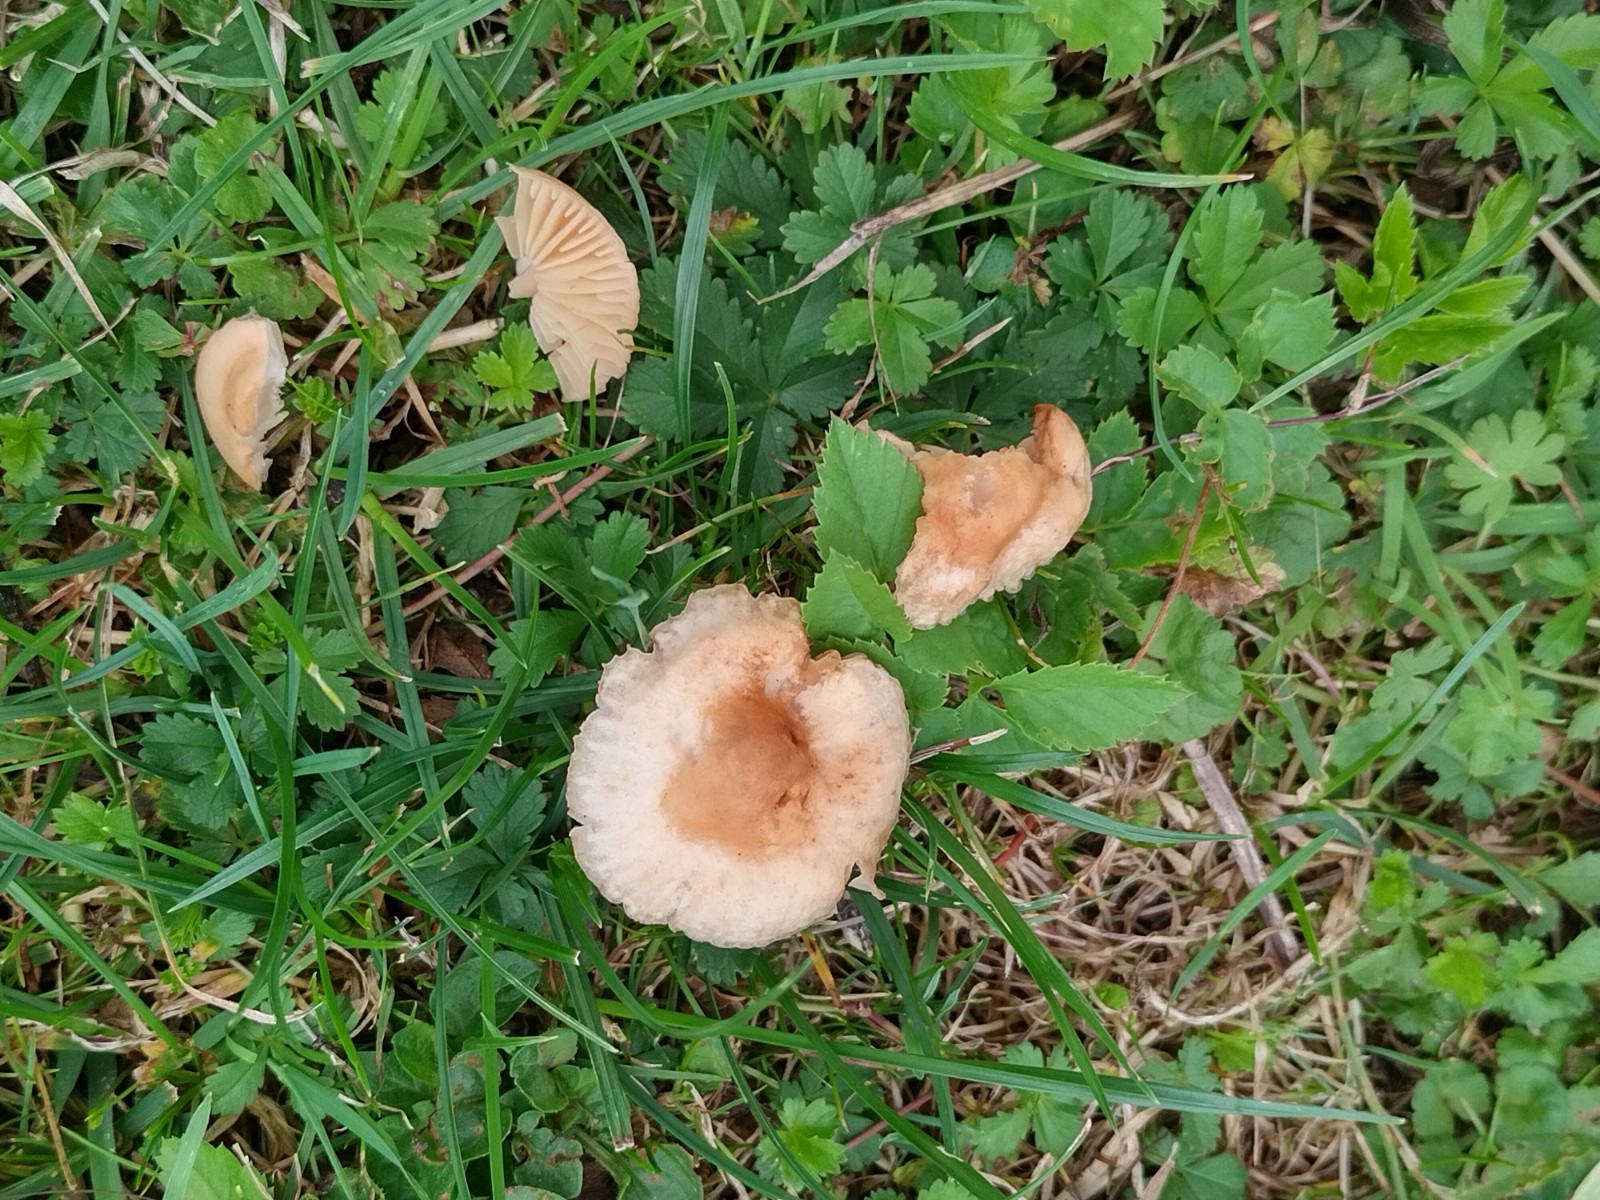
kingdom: Fungi
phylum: Basidiomycota
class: Agaricomycetes
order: Agaricales
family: Marasmiaceae
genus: Marasmius
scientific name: Marasmius oreades
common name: elledans-bruskhat
